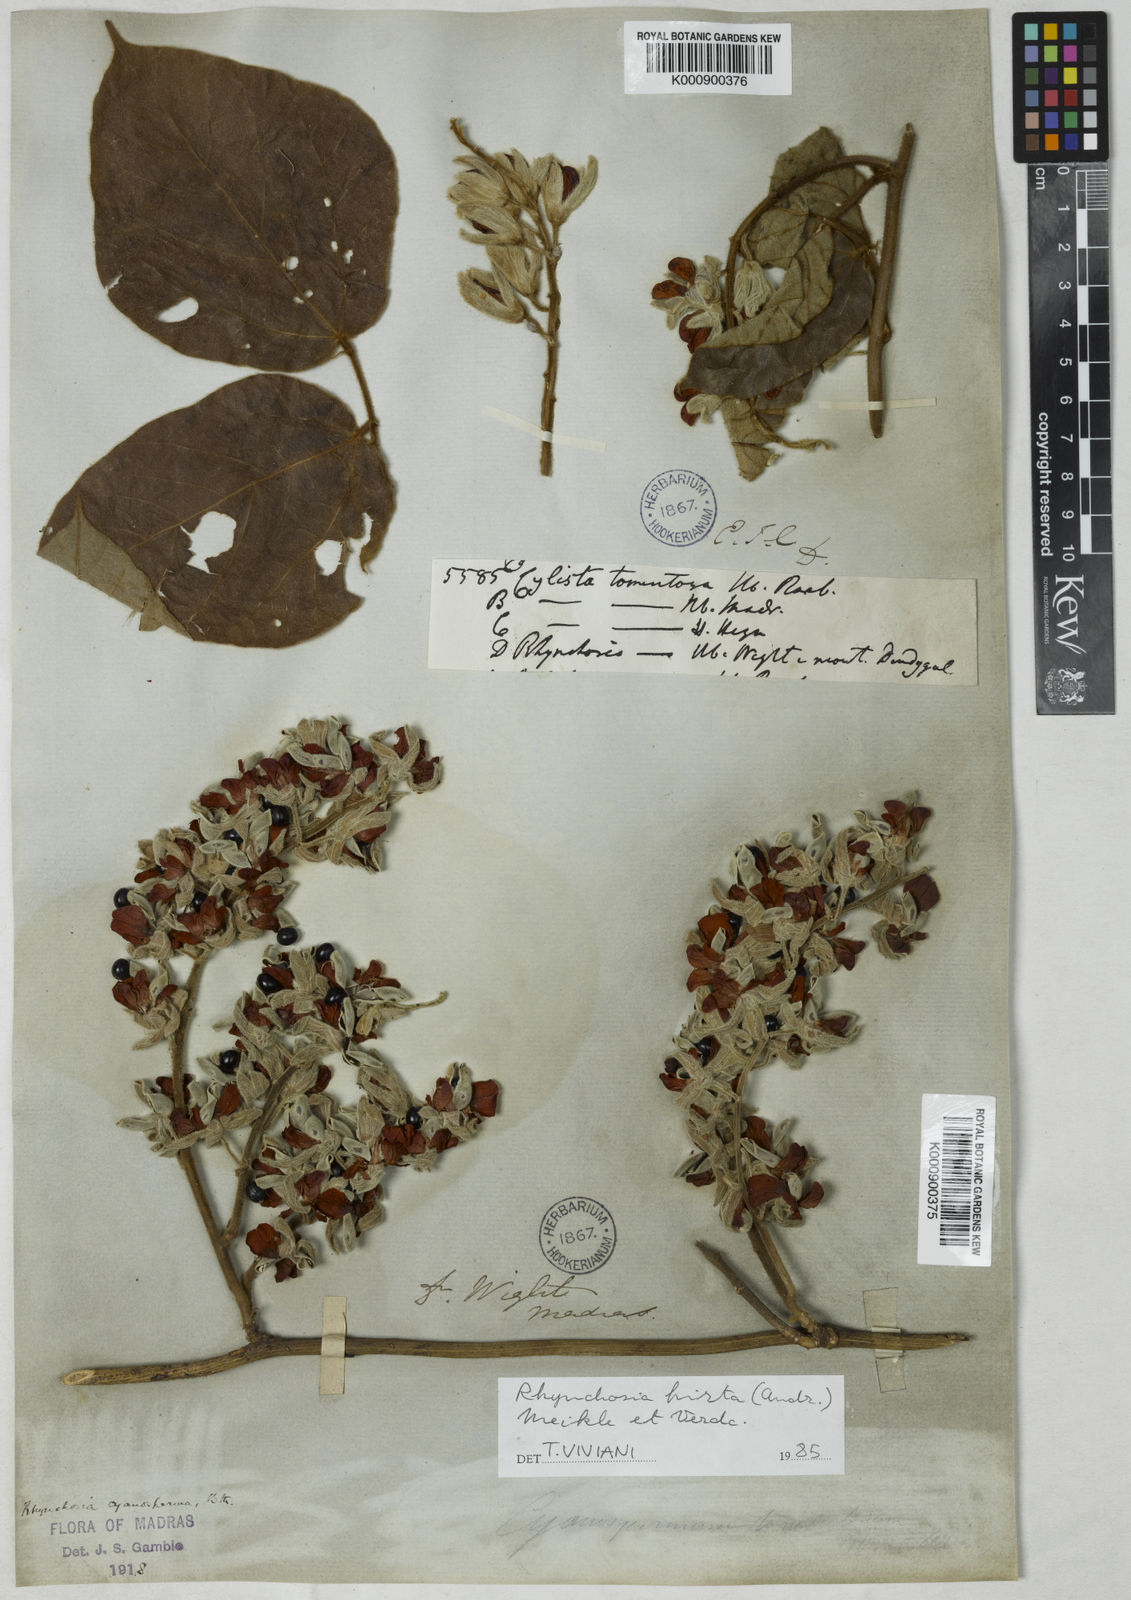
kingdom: Plantae
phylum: Tracheophyta
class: Magnoliopsida
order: Fabales
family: Fabaceae
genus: Rhynchosia
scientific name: Rhynchosia hirta
